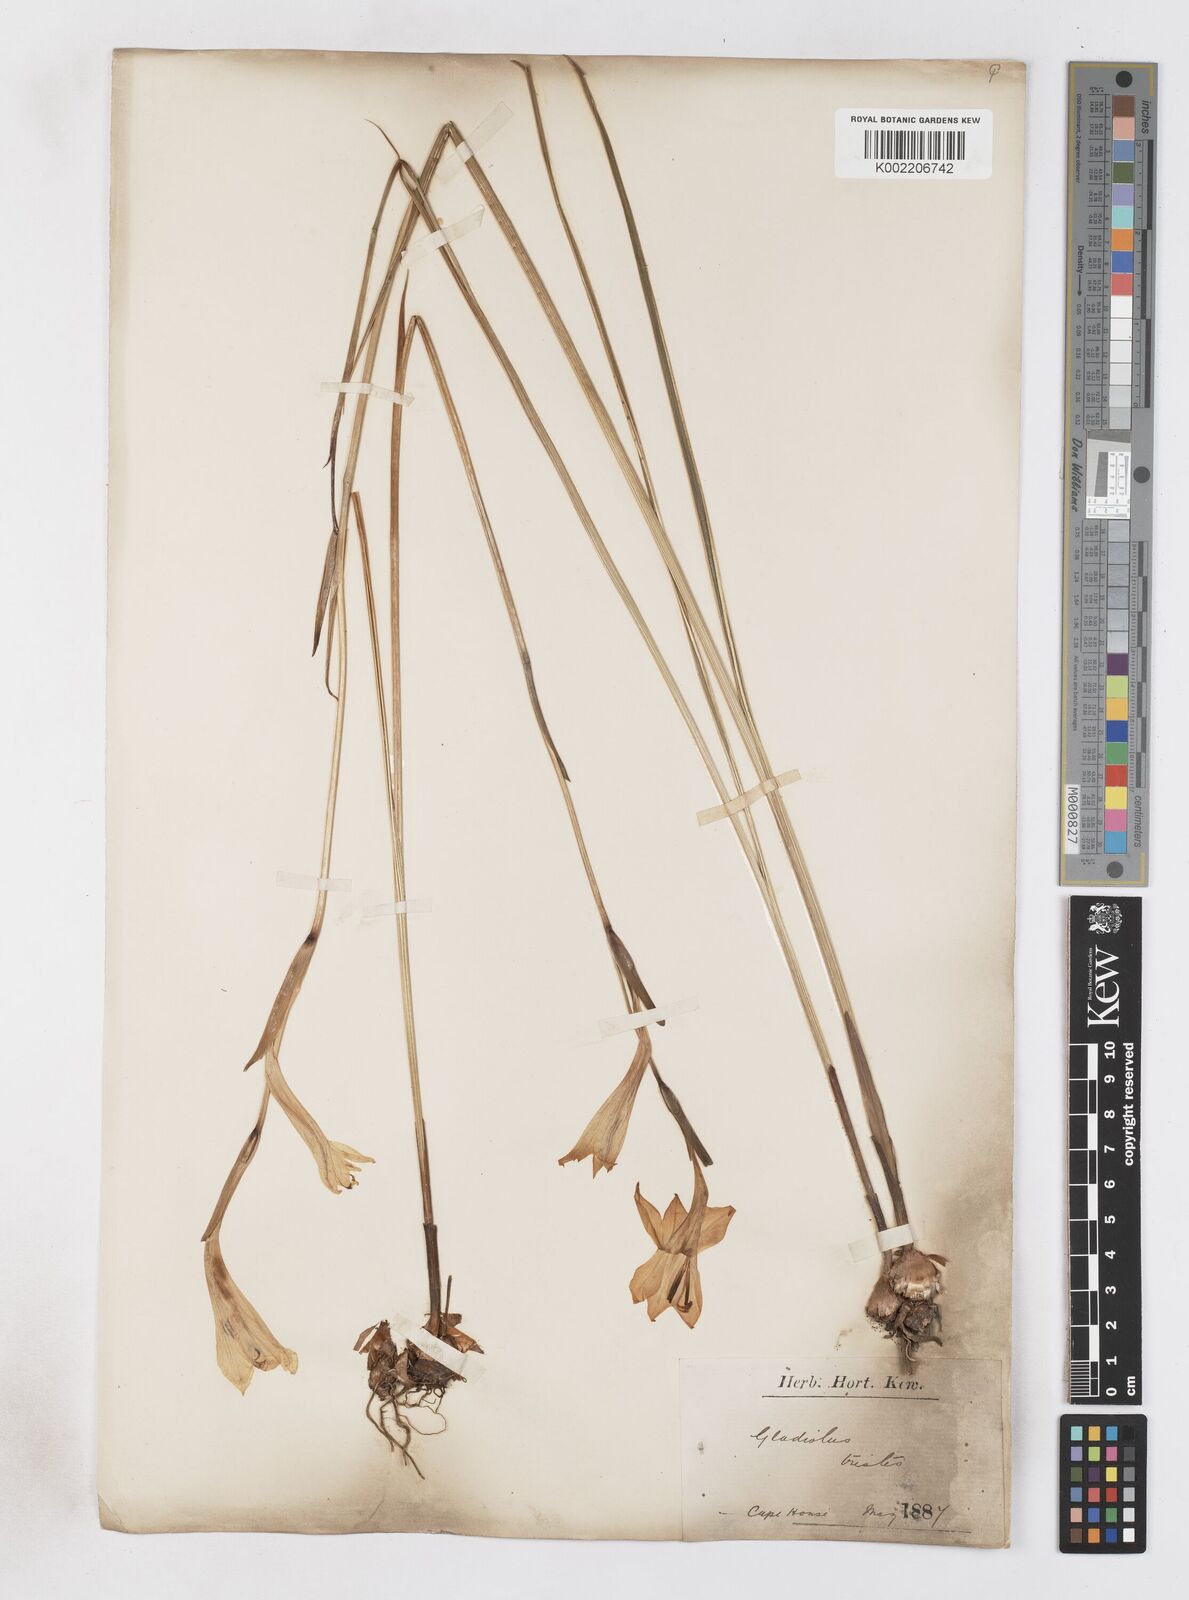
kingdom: Plantae
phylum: Tracheophyta
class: Liliopsida
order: Asparagales
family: Iridaceae
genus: Gladiolus
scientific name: Gladiolus tristis
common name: Ever-flowering gladiolus
